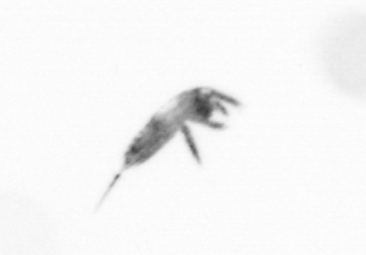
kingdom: Animalia
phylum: Arthropoda
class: Copepoda
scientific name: Copepoda
